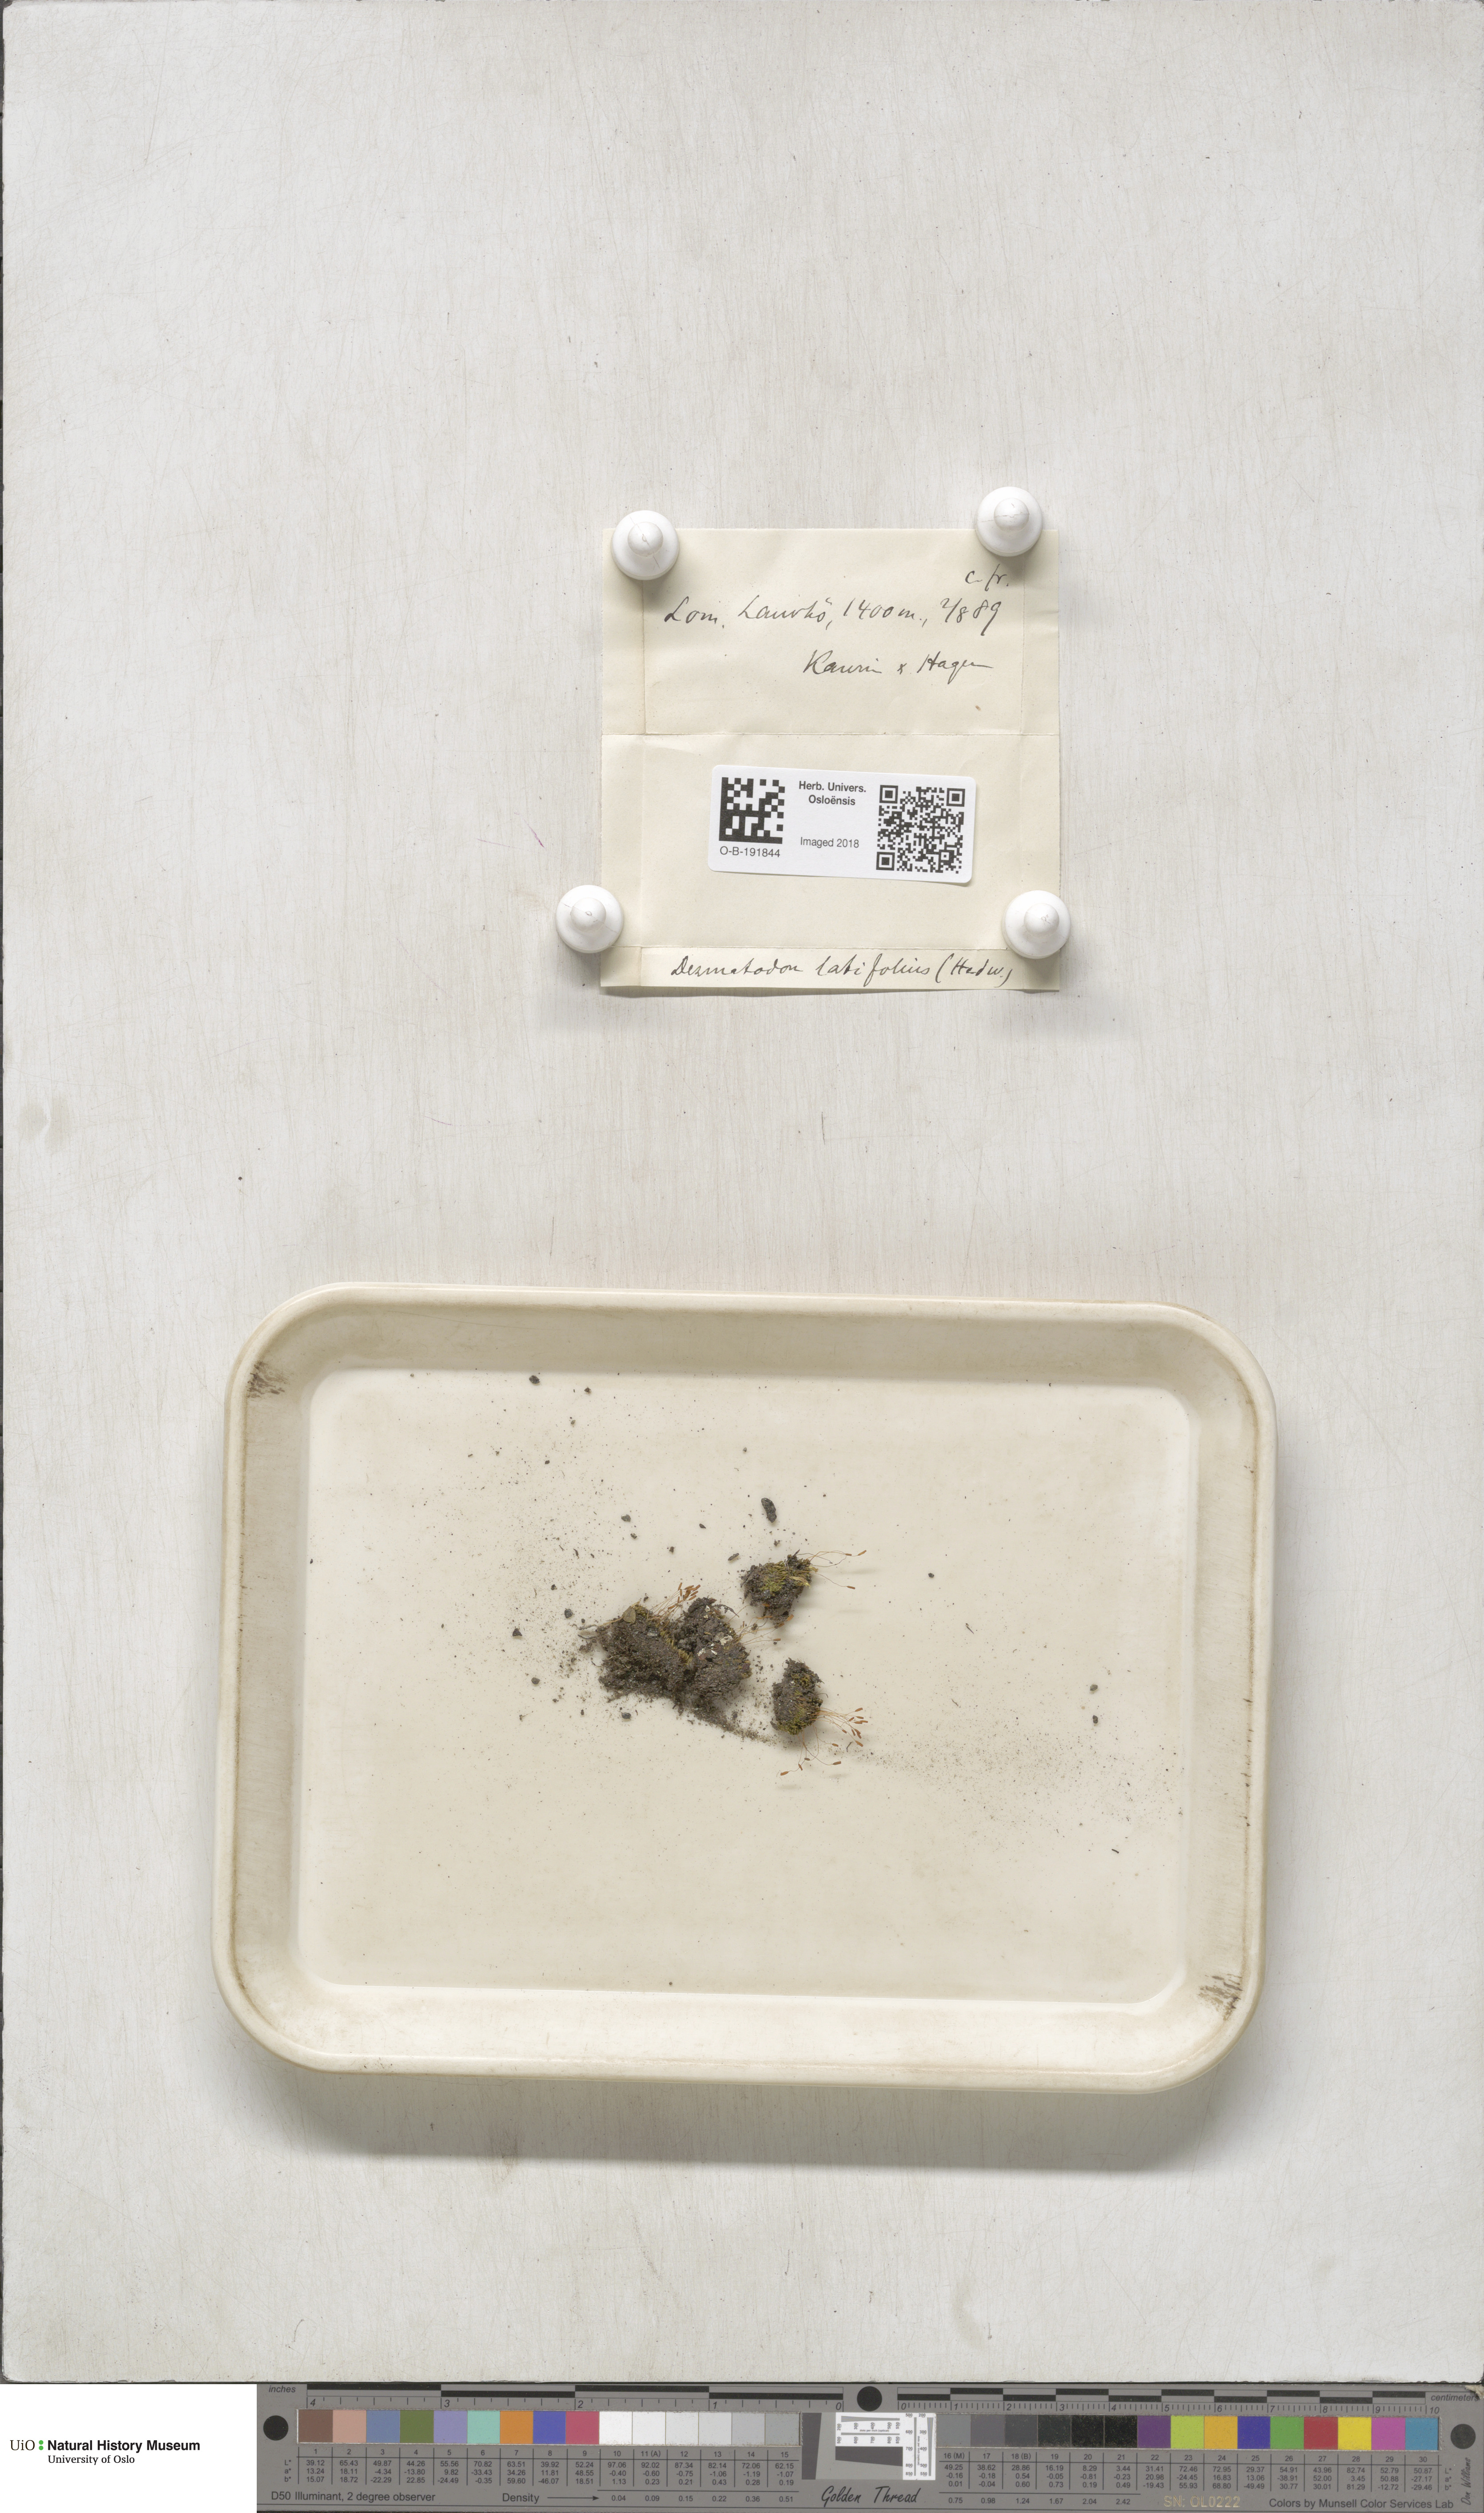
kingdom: Plantae
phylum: Bryophyta
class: Bryopsida
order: Pottiales
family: Pottiaceae
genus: Tortula
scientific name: Tortula hoppeana
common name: Hoppe's screw moss
